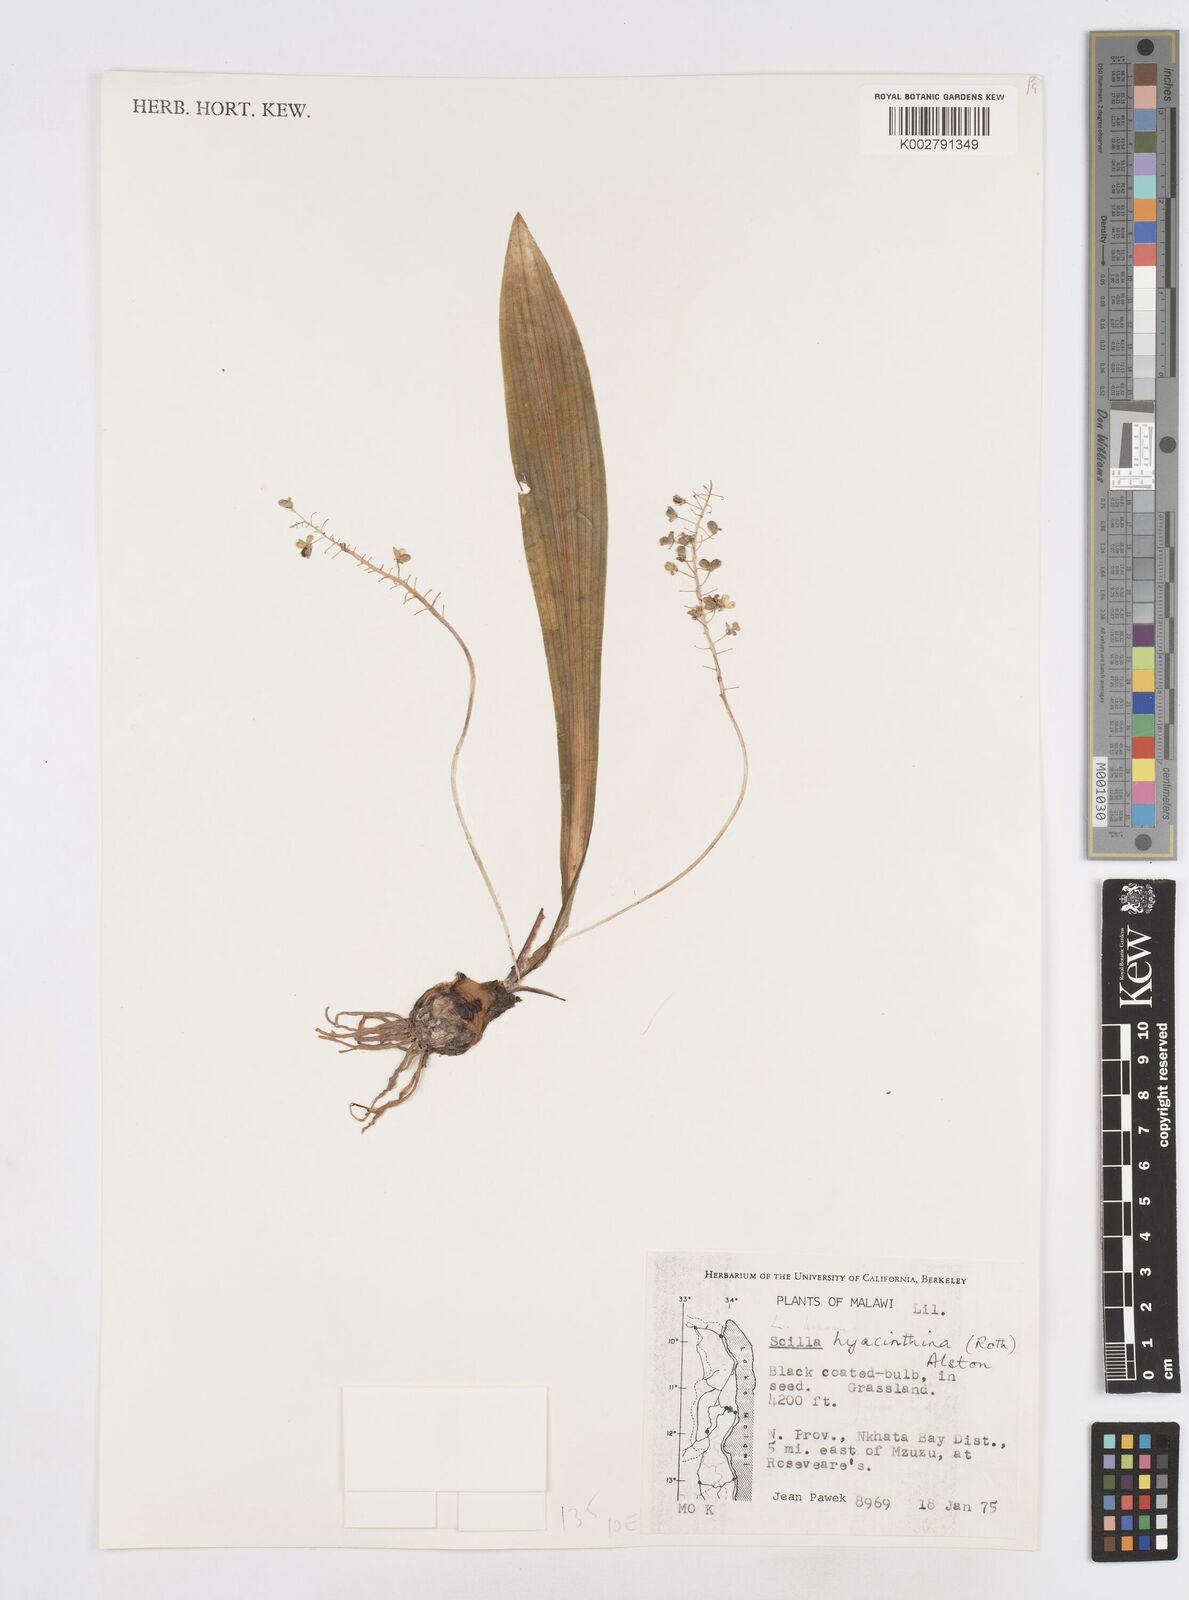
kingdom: Plantae
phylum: Tracheophyta
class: Liliopsida
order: Asparagales
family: Asparagaceae
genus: Ledebouria
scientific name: Ledebouria revoluta
